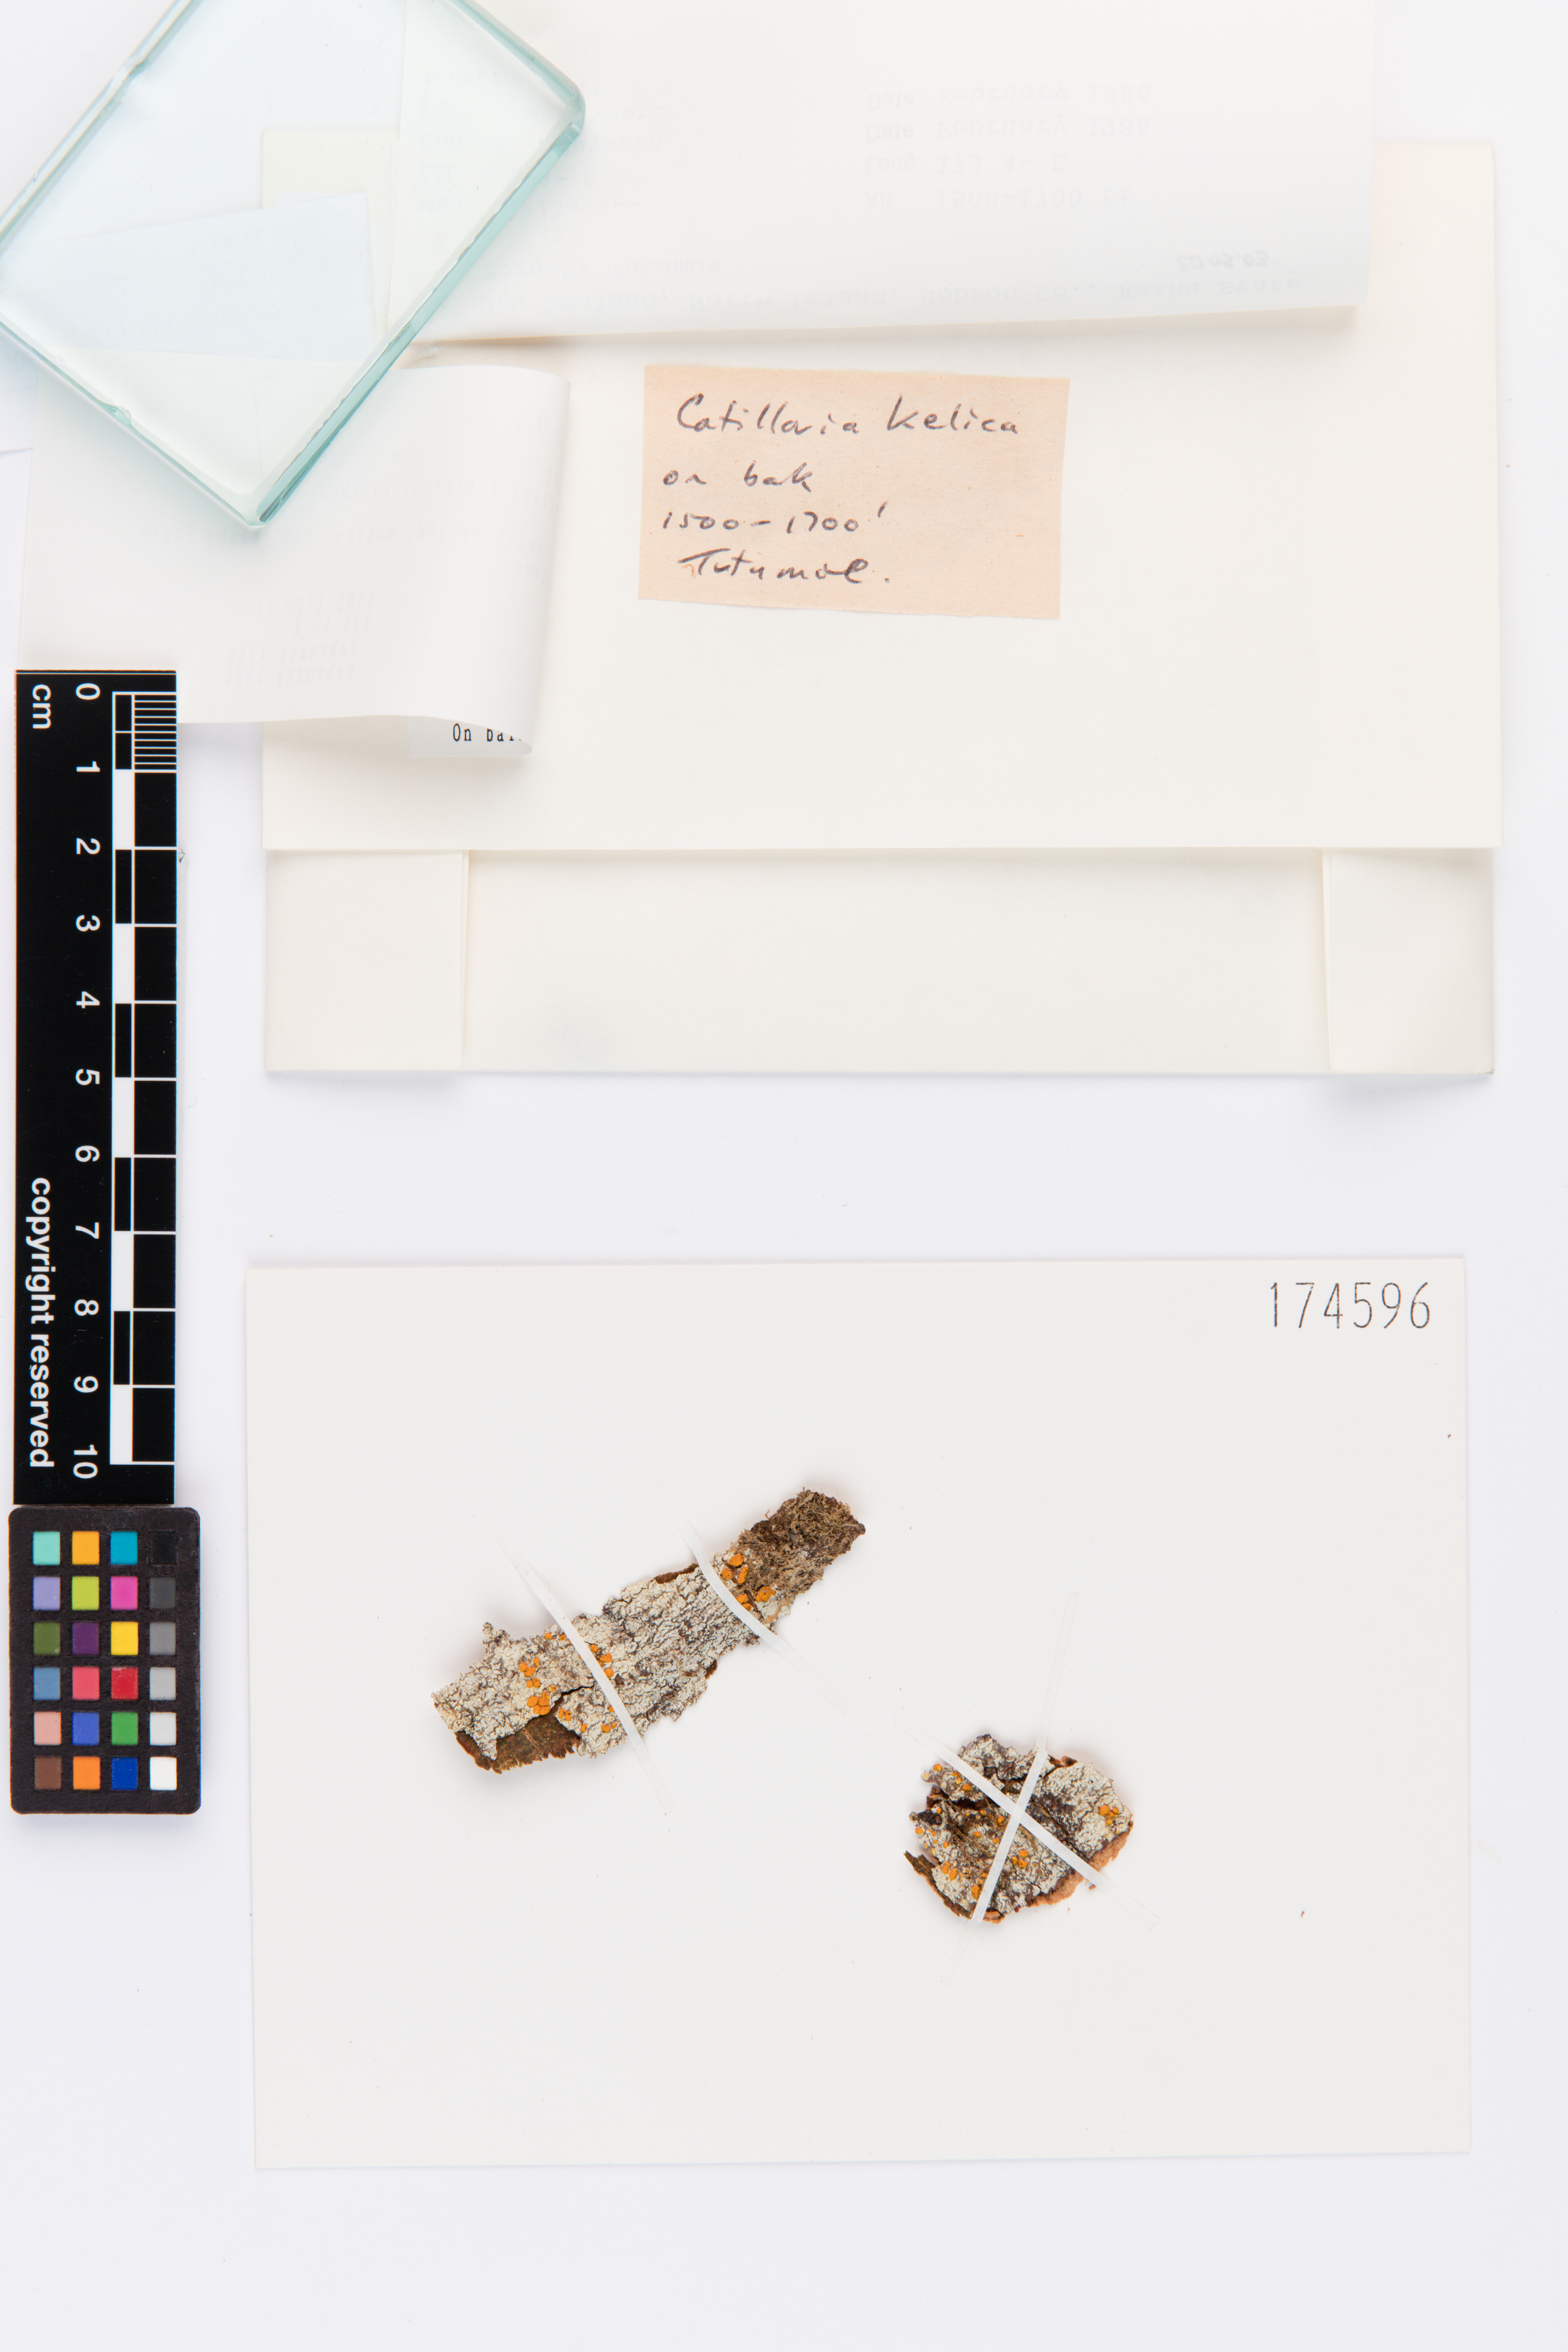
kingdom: Fungi
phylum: Ascomycota
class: Lecanoromycetes
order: Lecanorales
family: Ramalinaceae
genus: Stirtoniella
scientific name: Stirtoniella kelica
